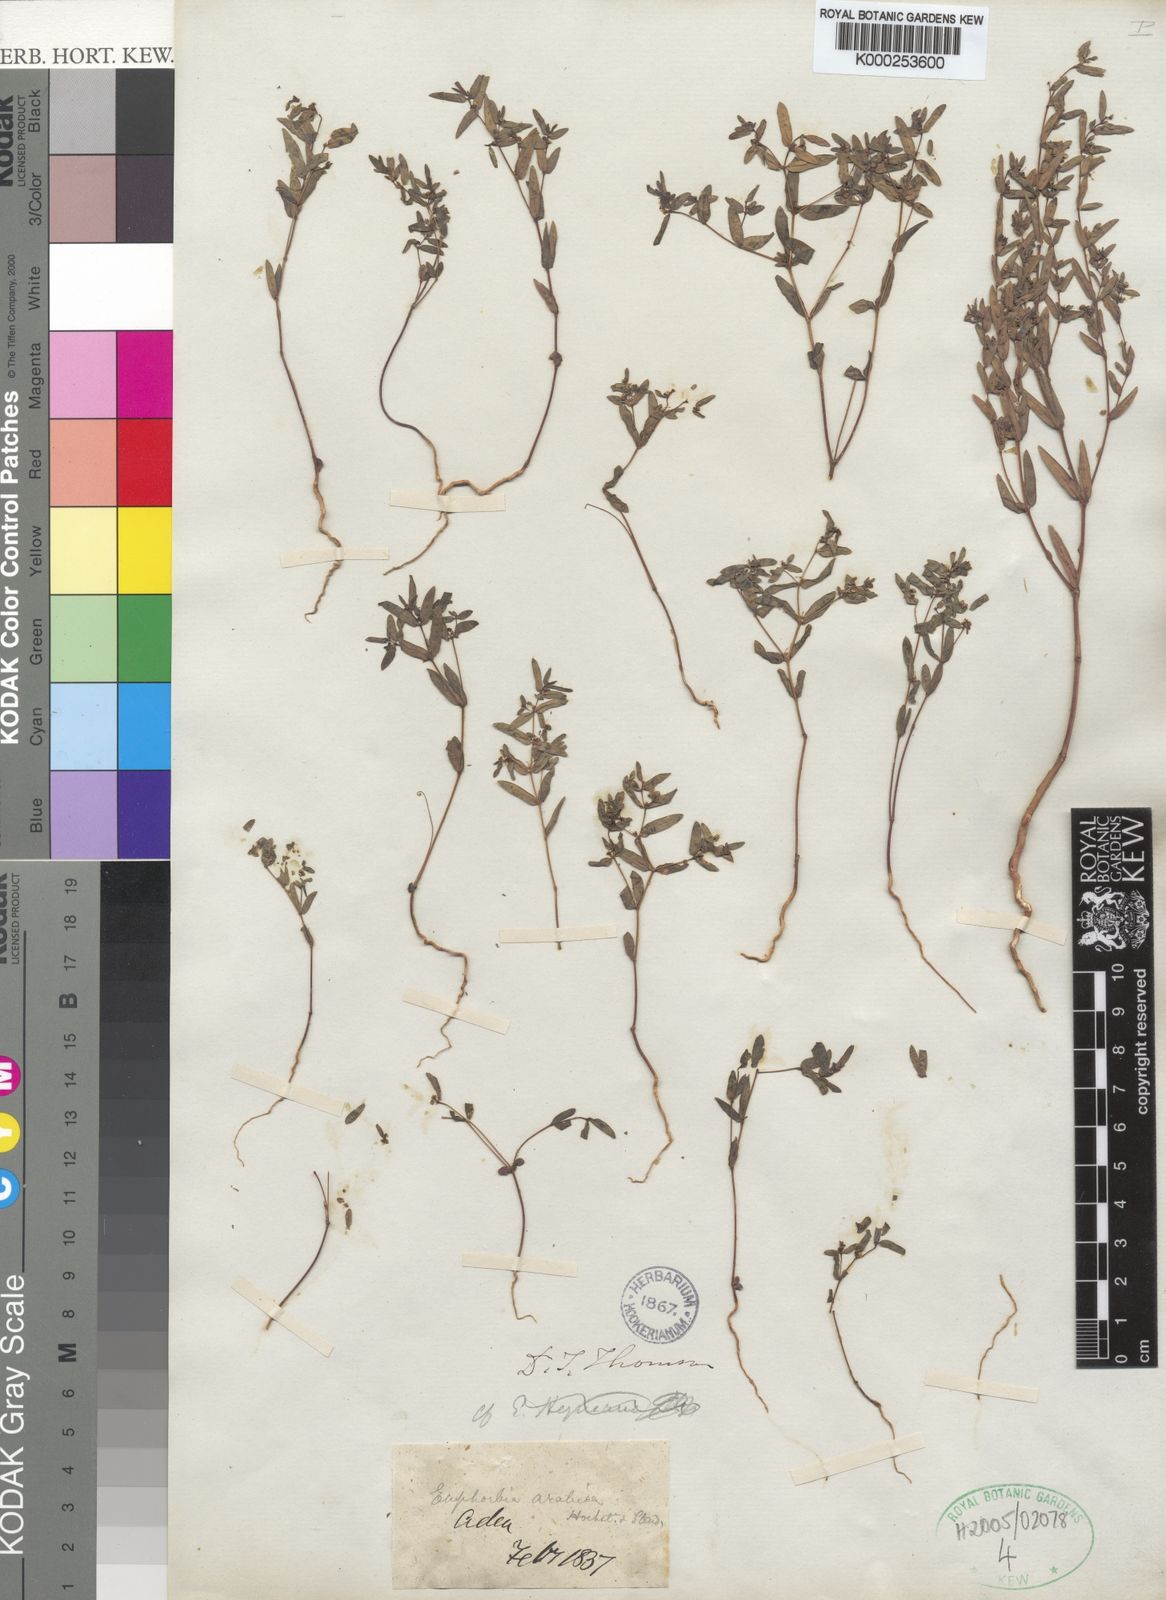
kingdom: Plantae
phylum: Tracheophyta
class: Magnoliopsida
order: Malpighiales
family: Euphorbiaceae
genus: Euphorbia
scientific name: Euphorbia arabica
